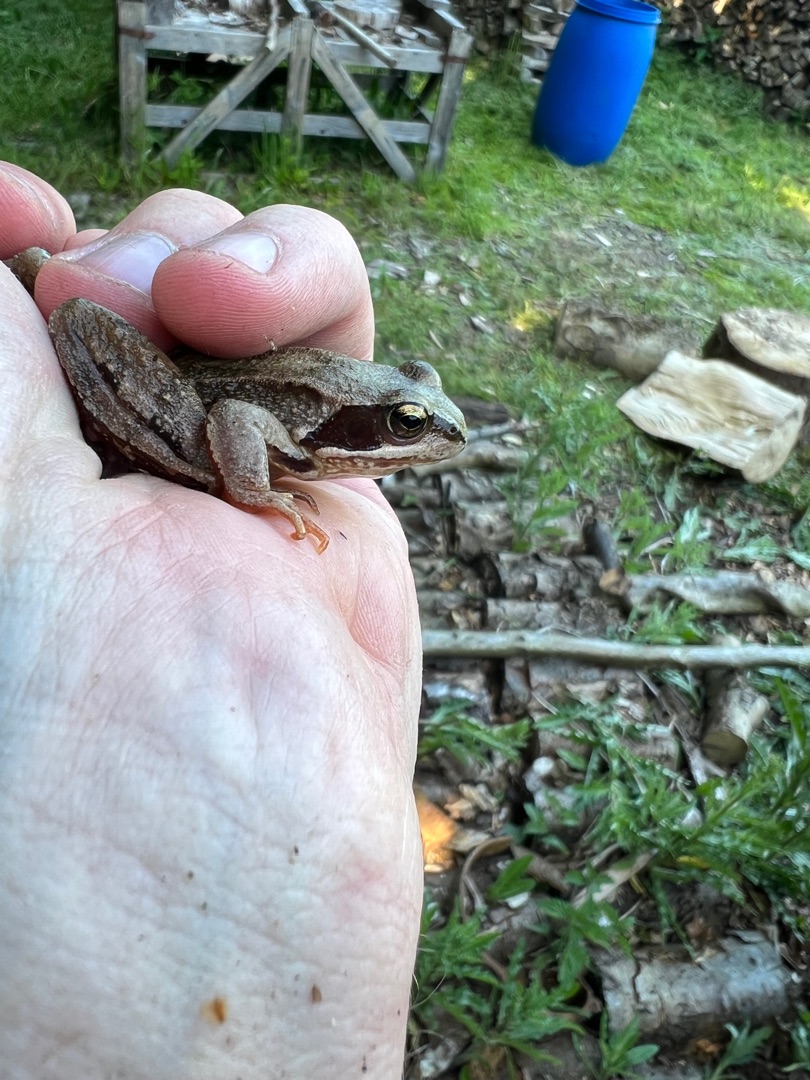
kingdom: Animalia
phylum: Chordata
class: Amphibia
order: Anura
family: Ranidae
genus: Rana
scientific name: Rana temporaria
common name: Butsnudet frø
